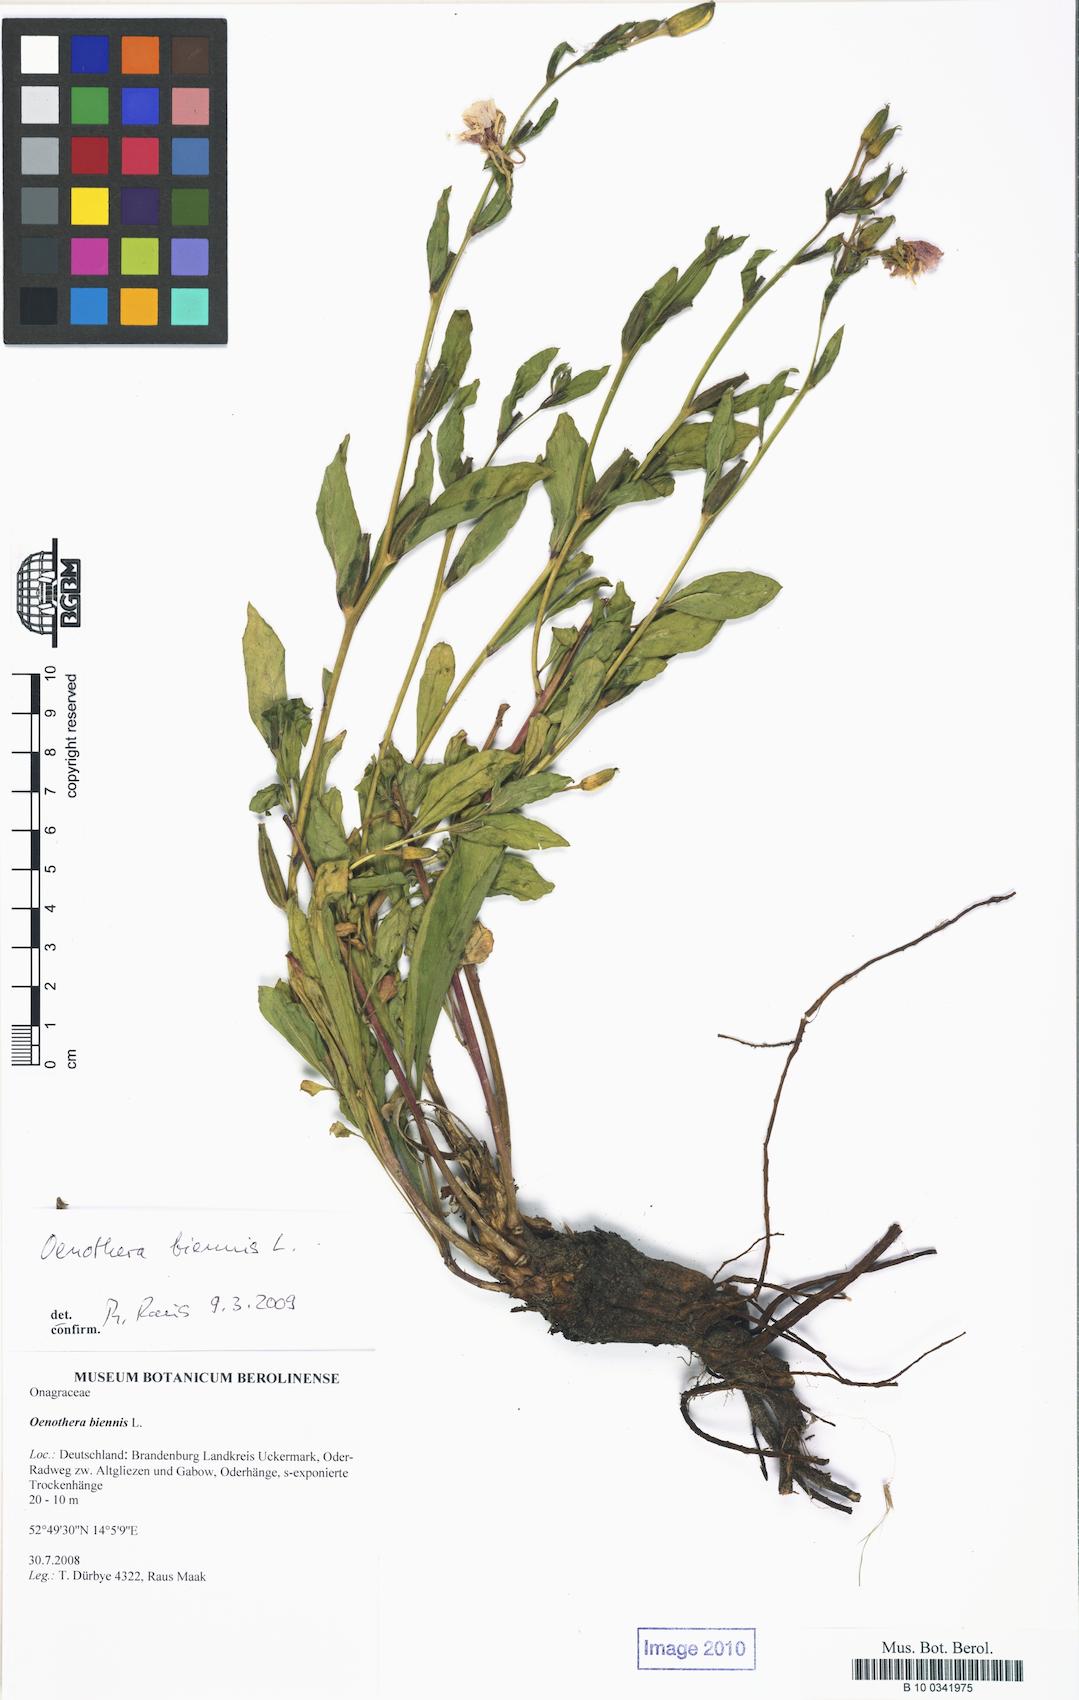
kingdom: Plantae
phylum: Tracheophyta
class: Magnoliopsida
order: Myrtales
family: Onagraceae
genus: Oenothera
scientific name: Oenothera biennis
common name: Common evening-primrose
